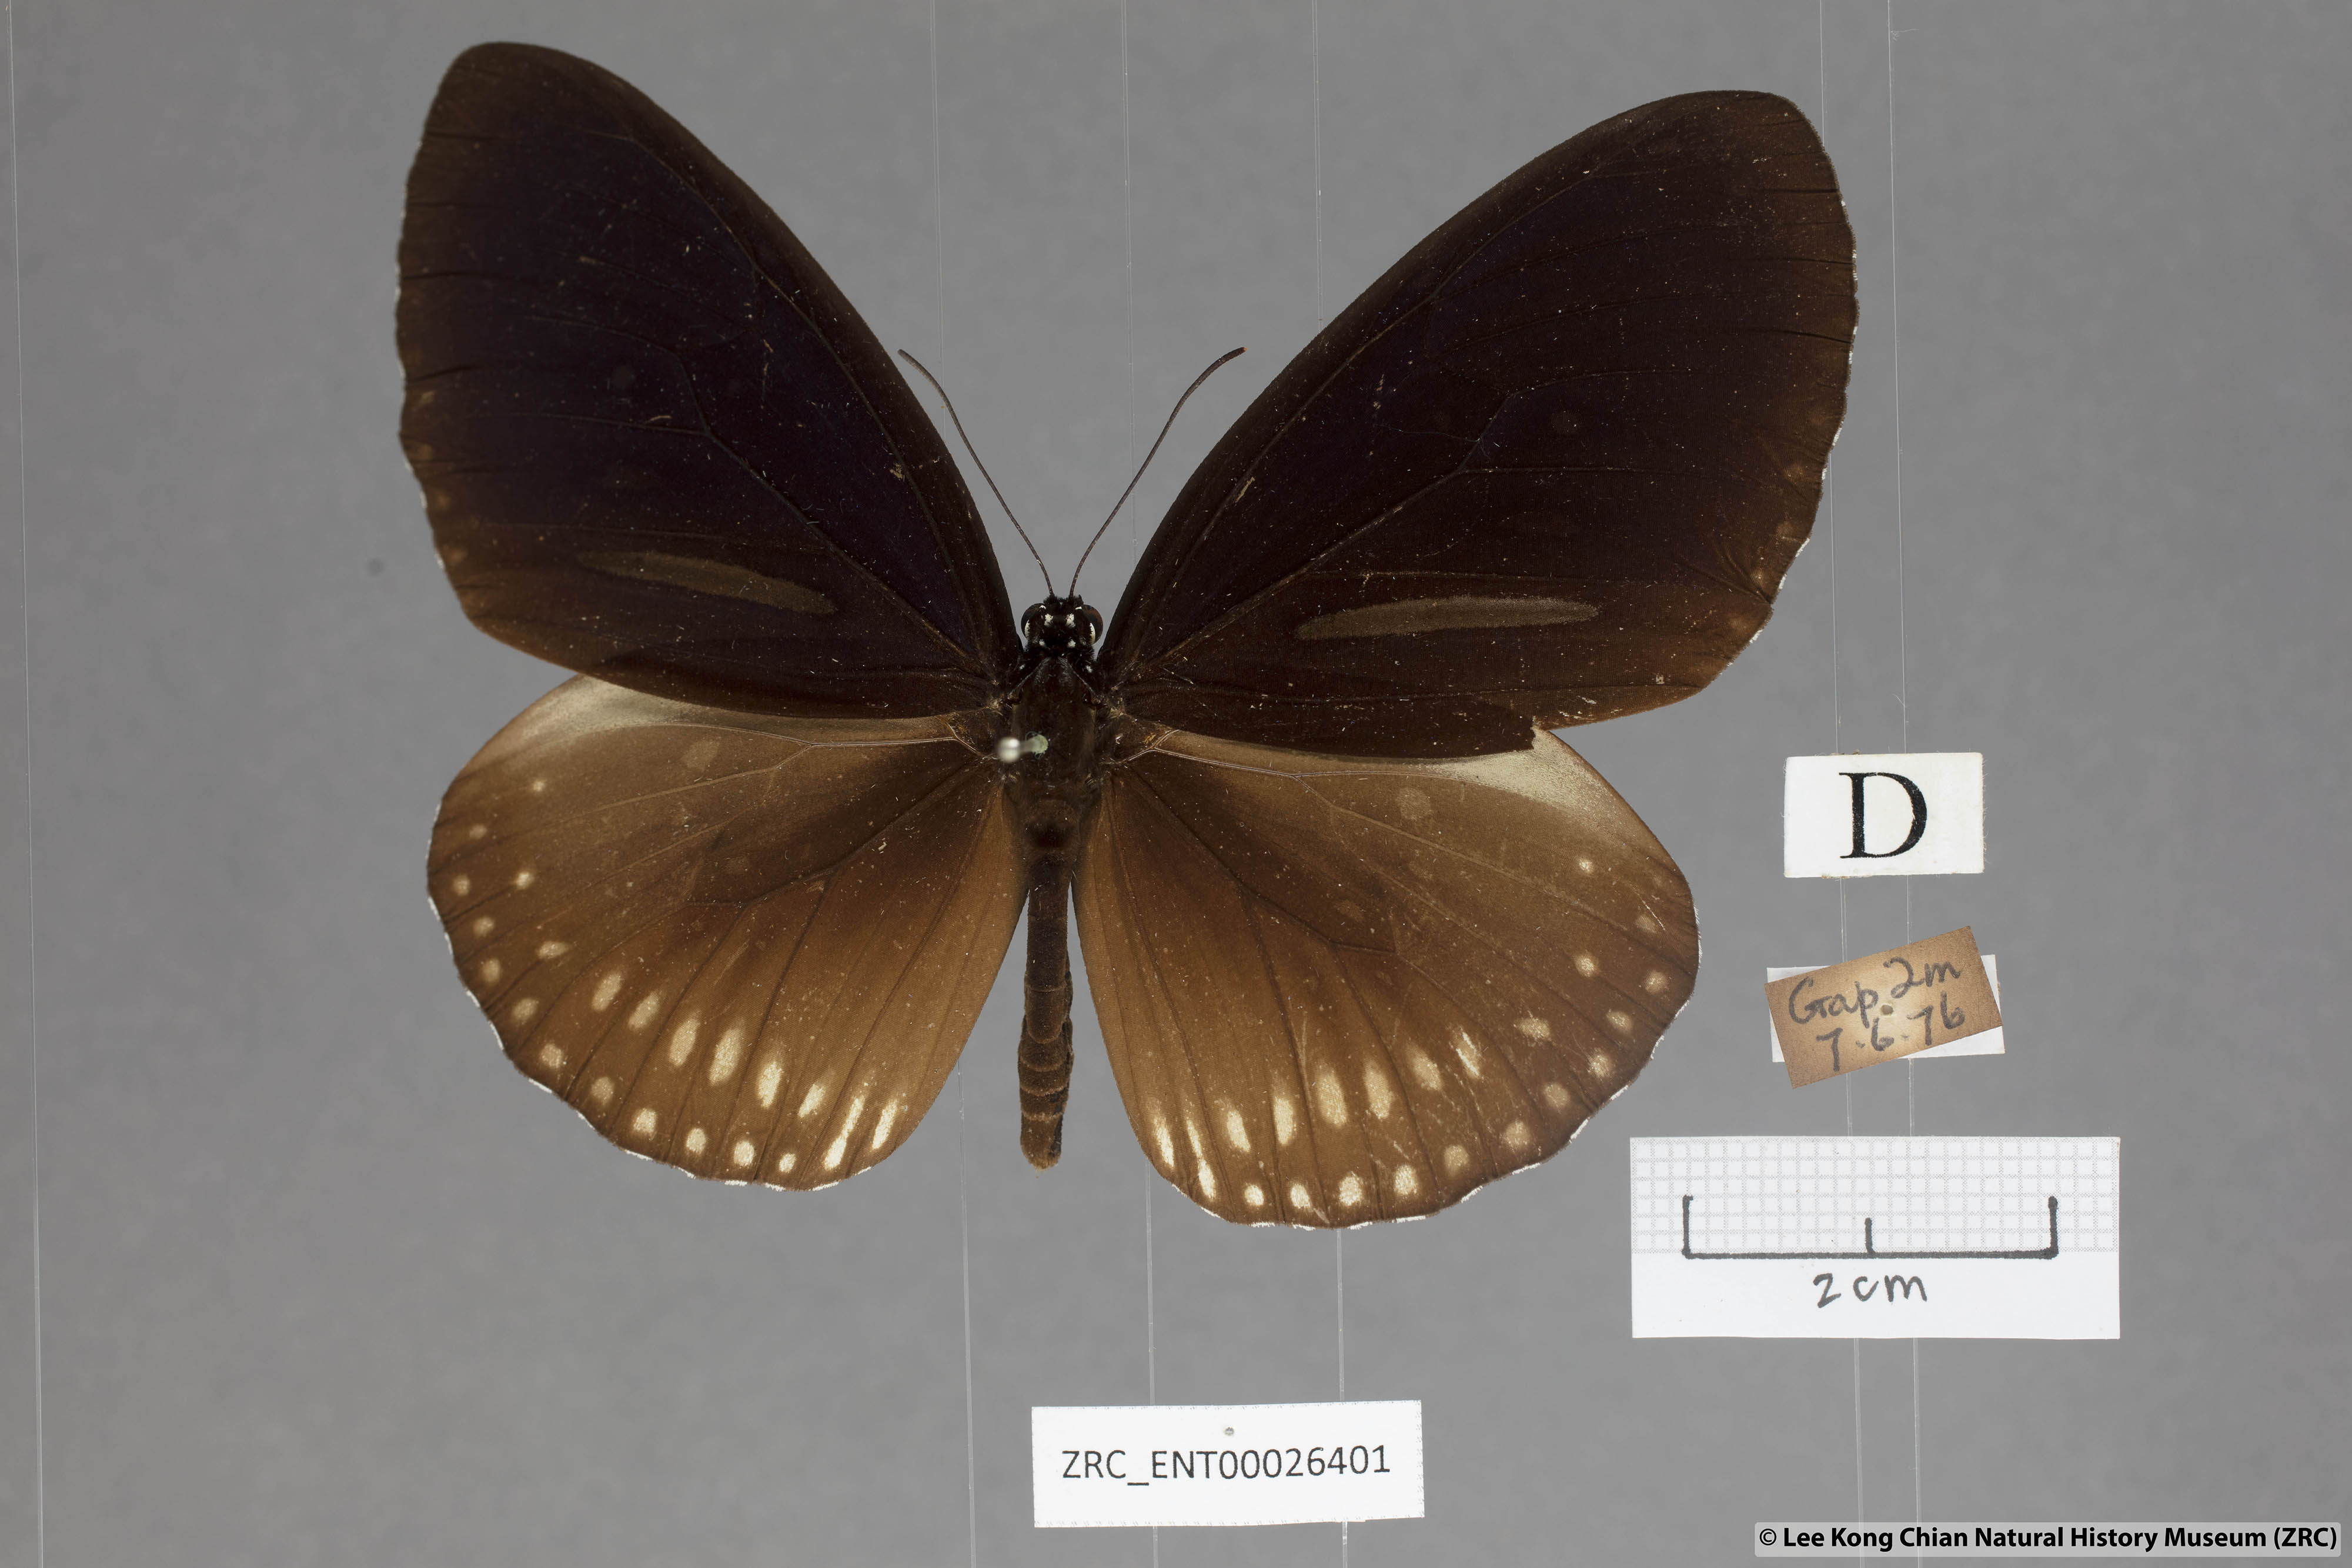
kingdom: Animalia
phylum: Arthropoda
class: Insecta
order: Lepidoptera
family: Nymphalidae
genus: Euploea
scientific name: Euploea algea
